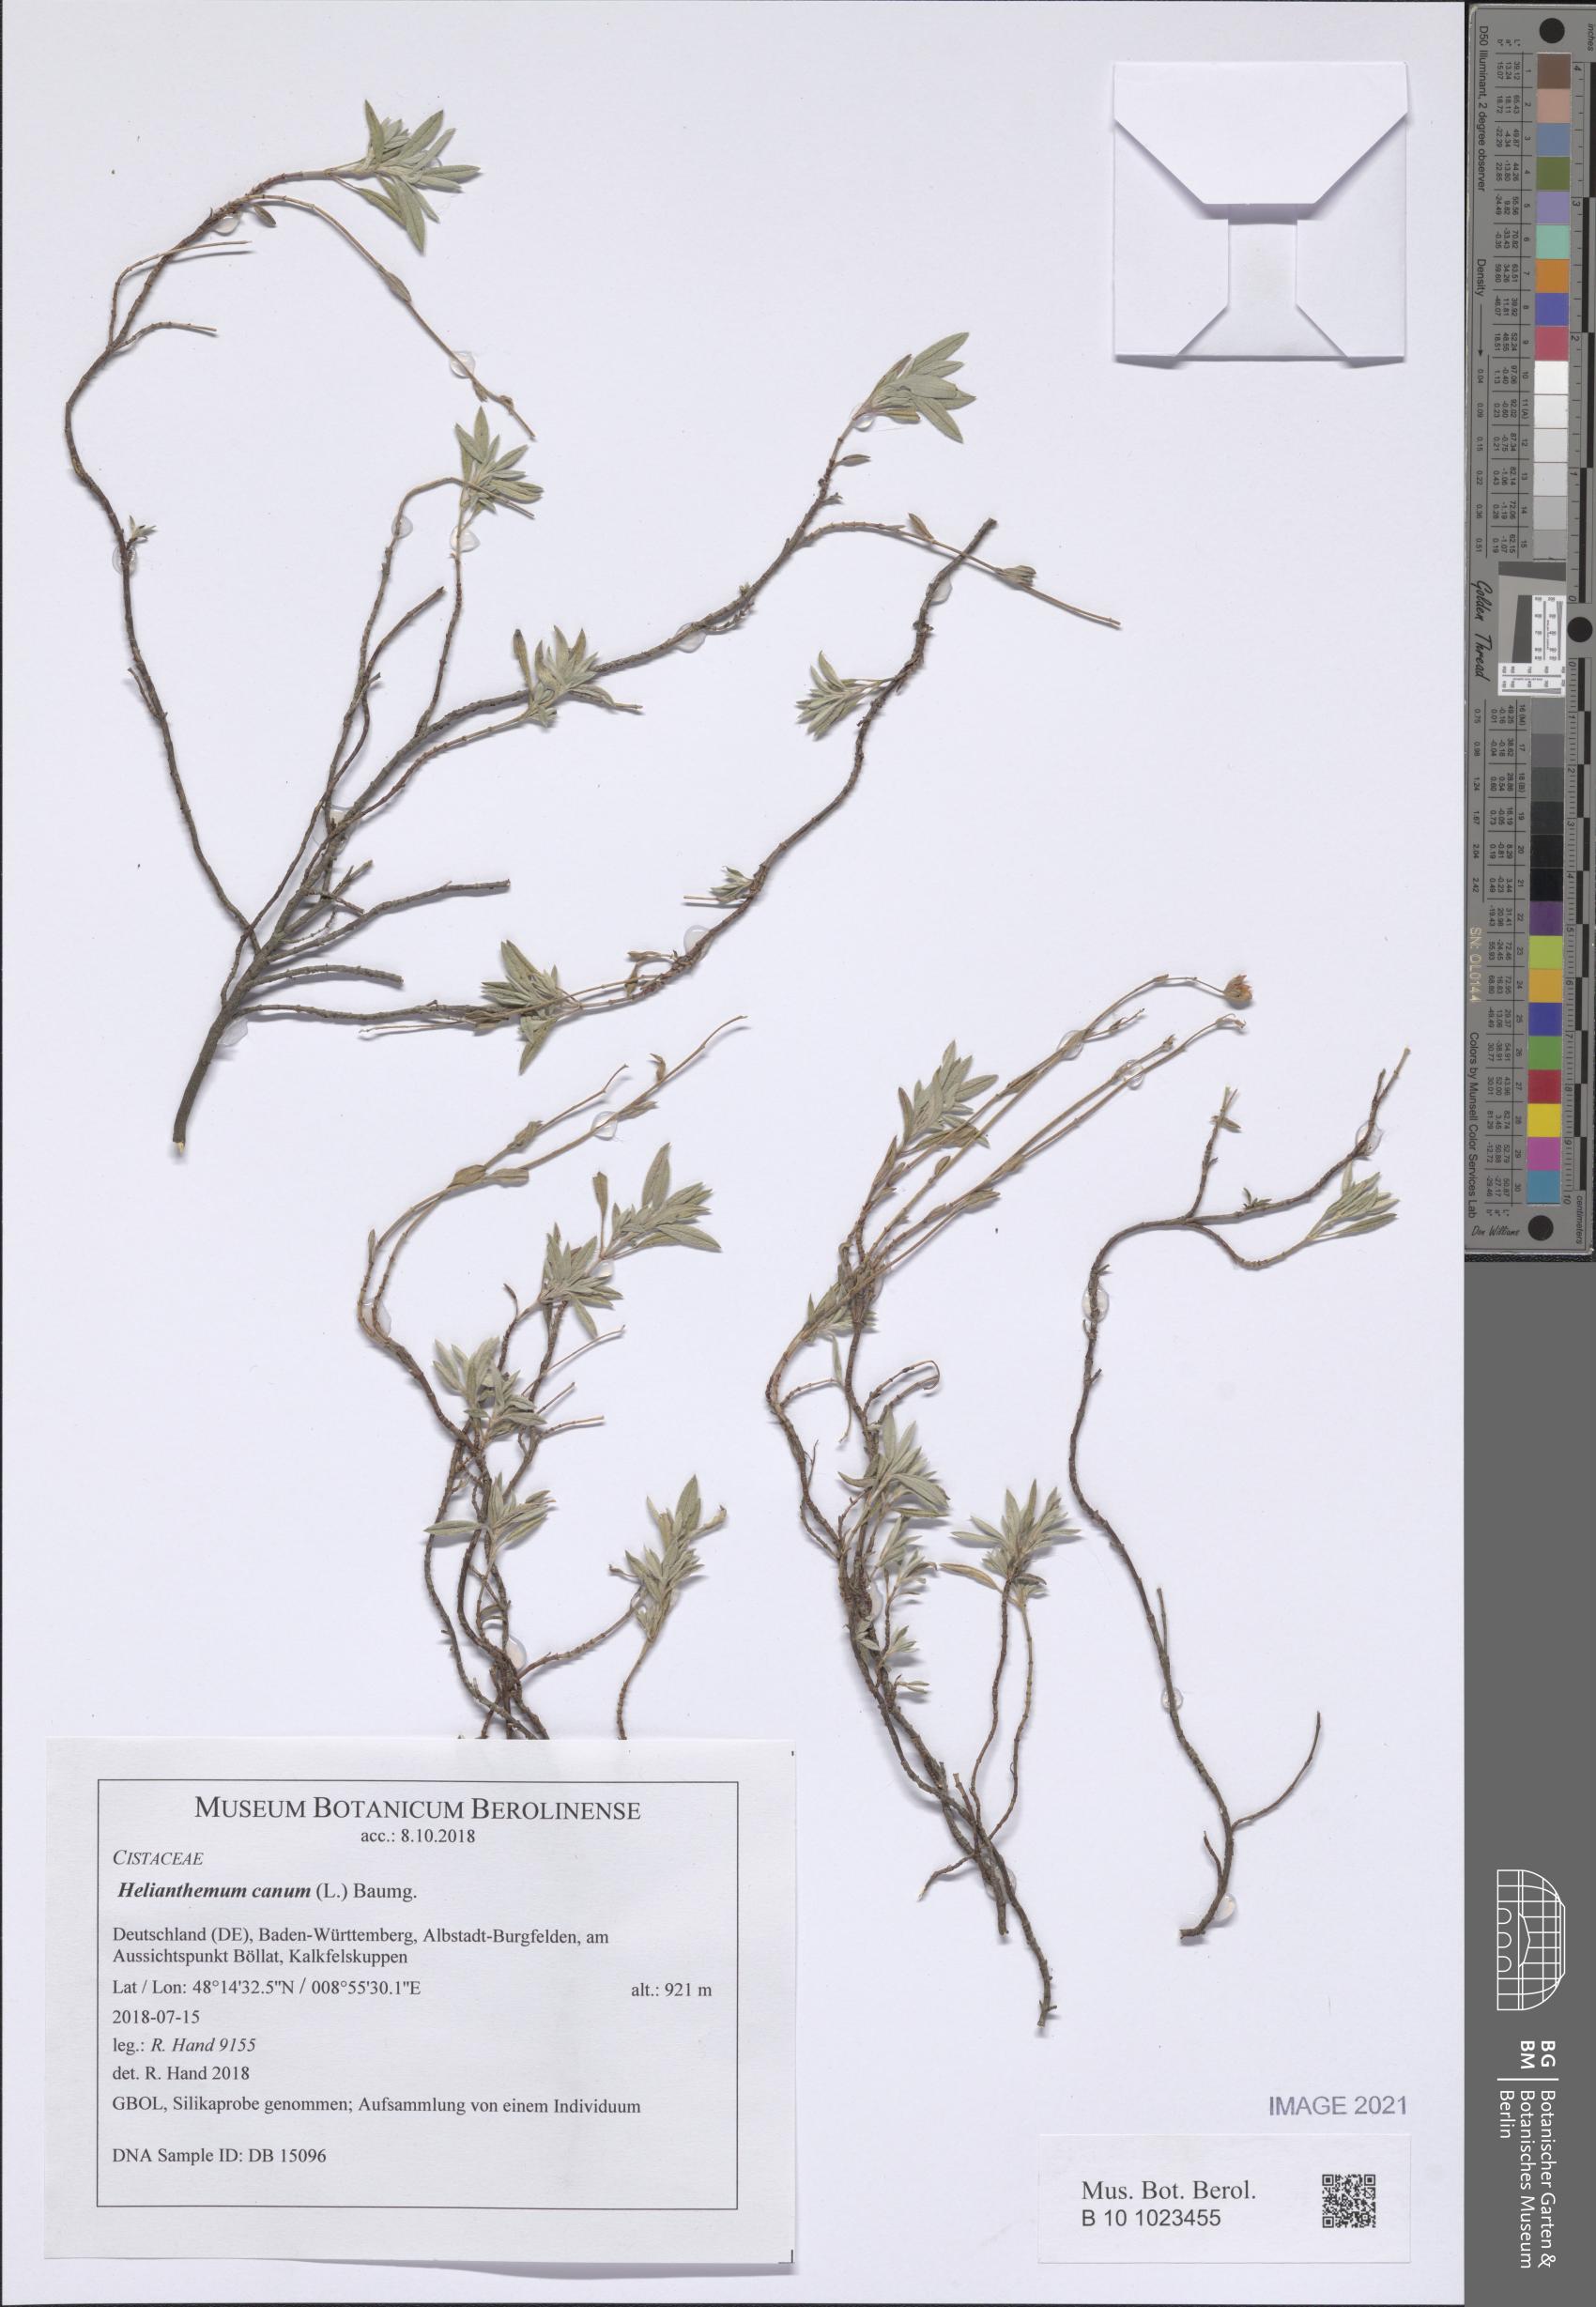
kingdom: Plantae
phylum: Tracheophyta
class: Magnoliopsida
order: Malvales
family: Cistaceae
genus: Helianthemum
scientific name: Helianthemum canum
